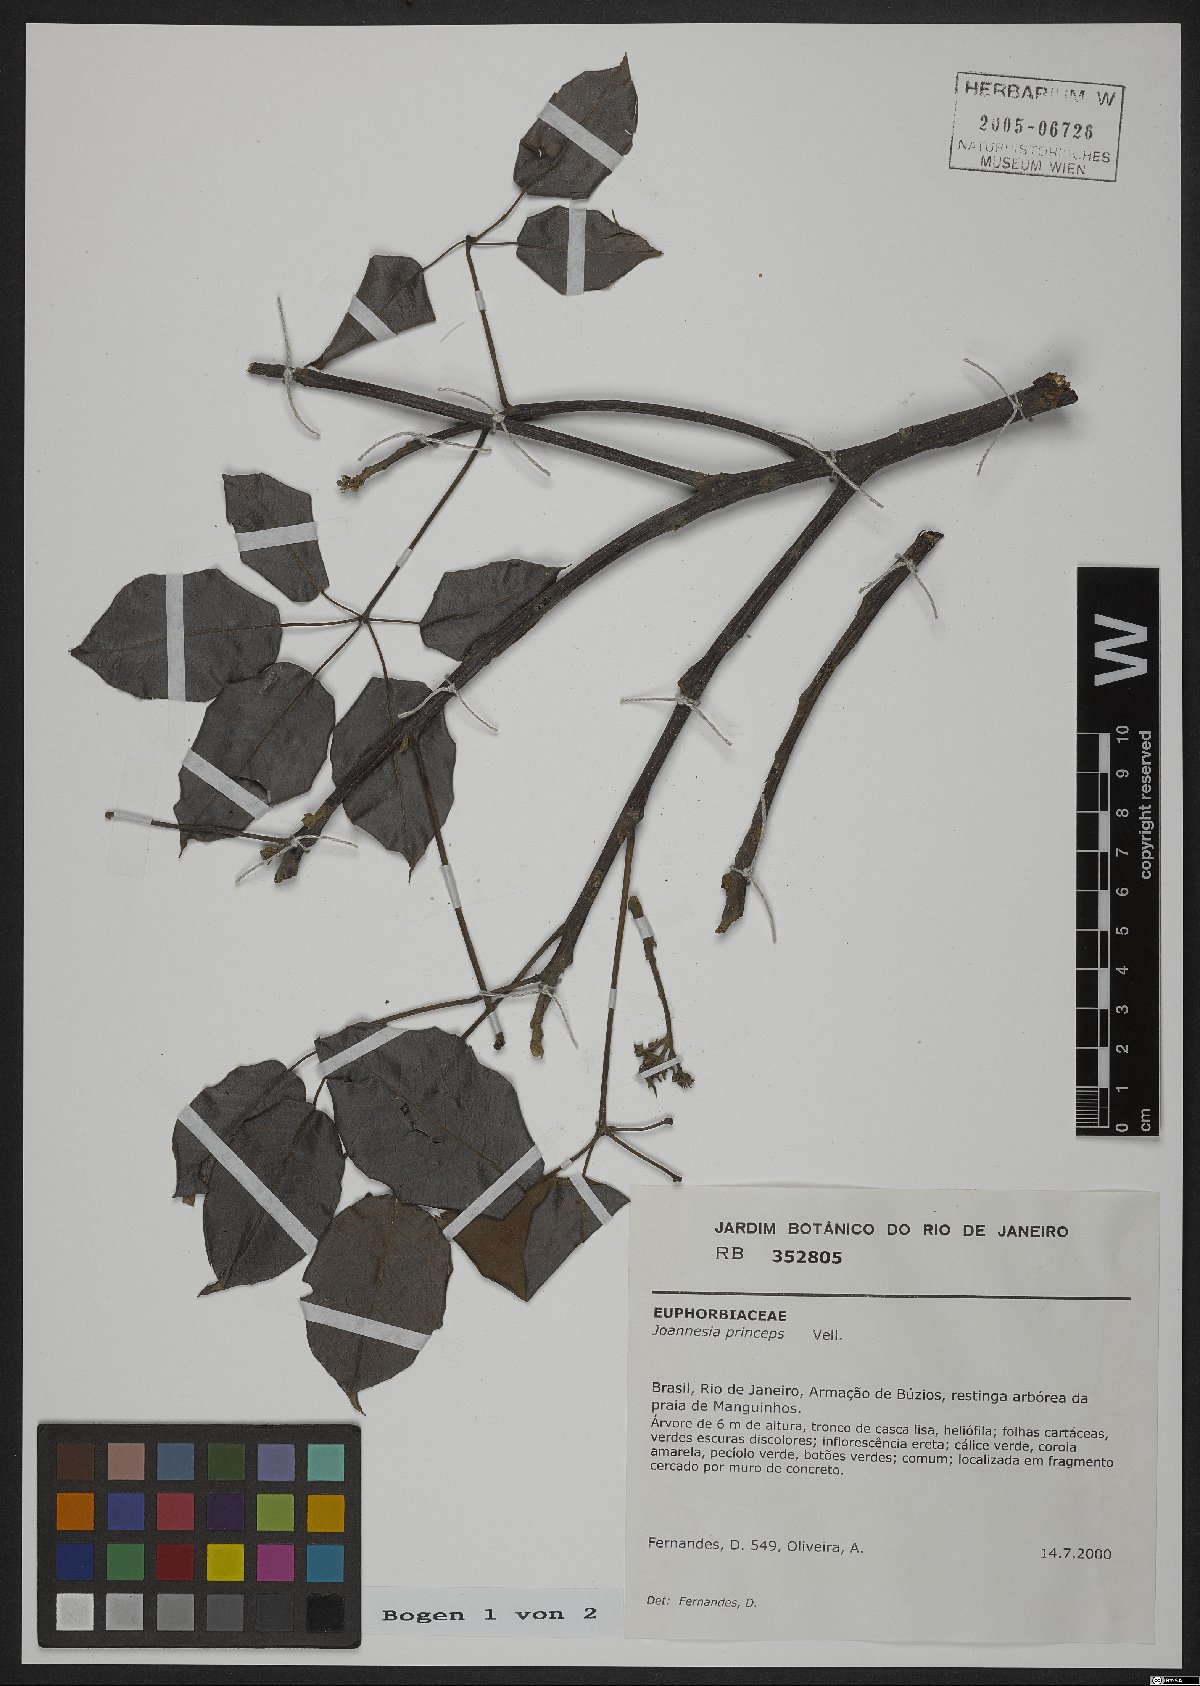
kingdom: Plantae
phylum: Tracheophyta
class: Magnoliopsida
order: Malpighiales
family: Euphorbiaceae
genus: Joannesia
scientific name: Joannesia princeps
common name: Arara nut-tree
